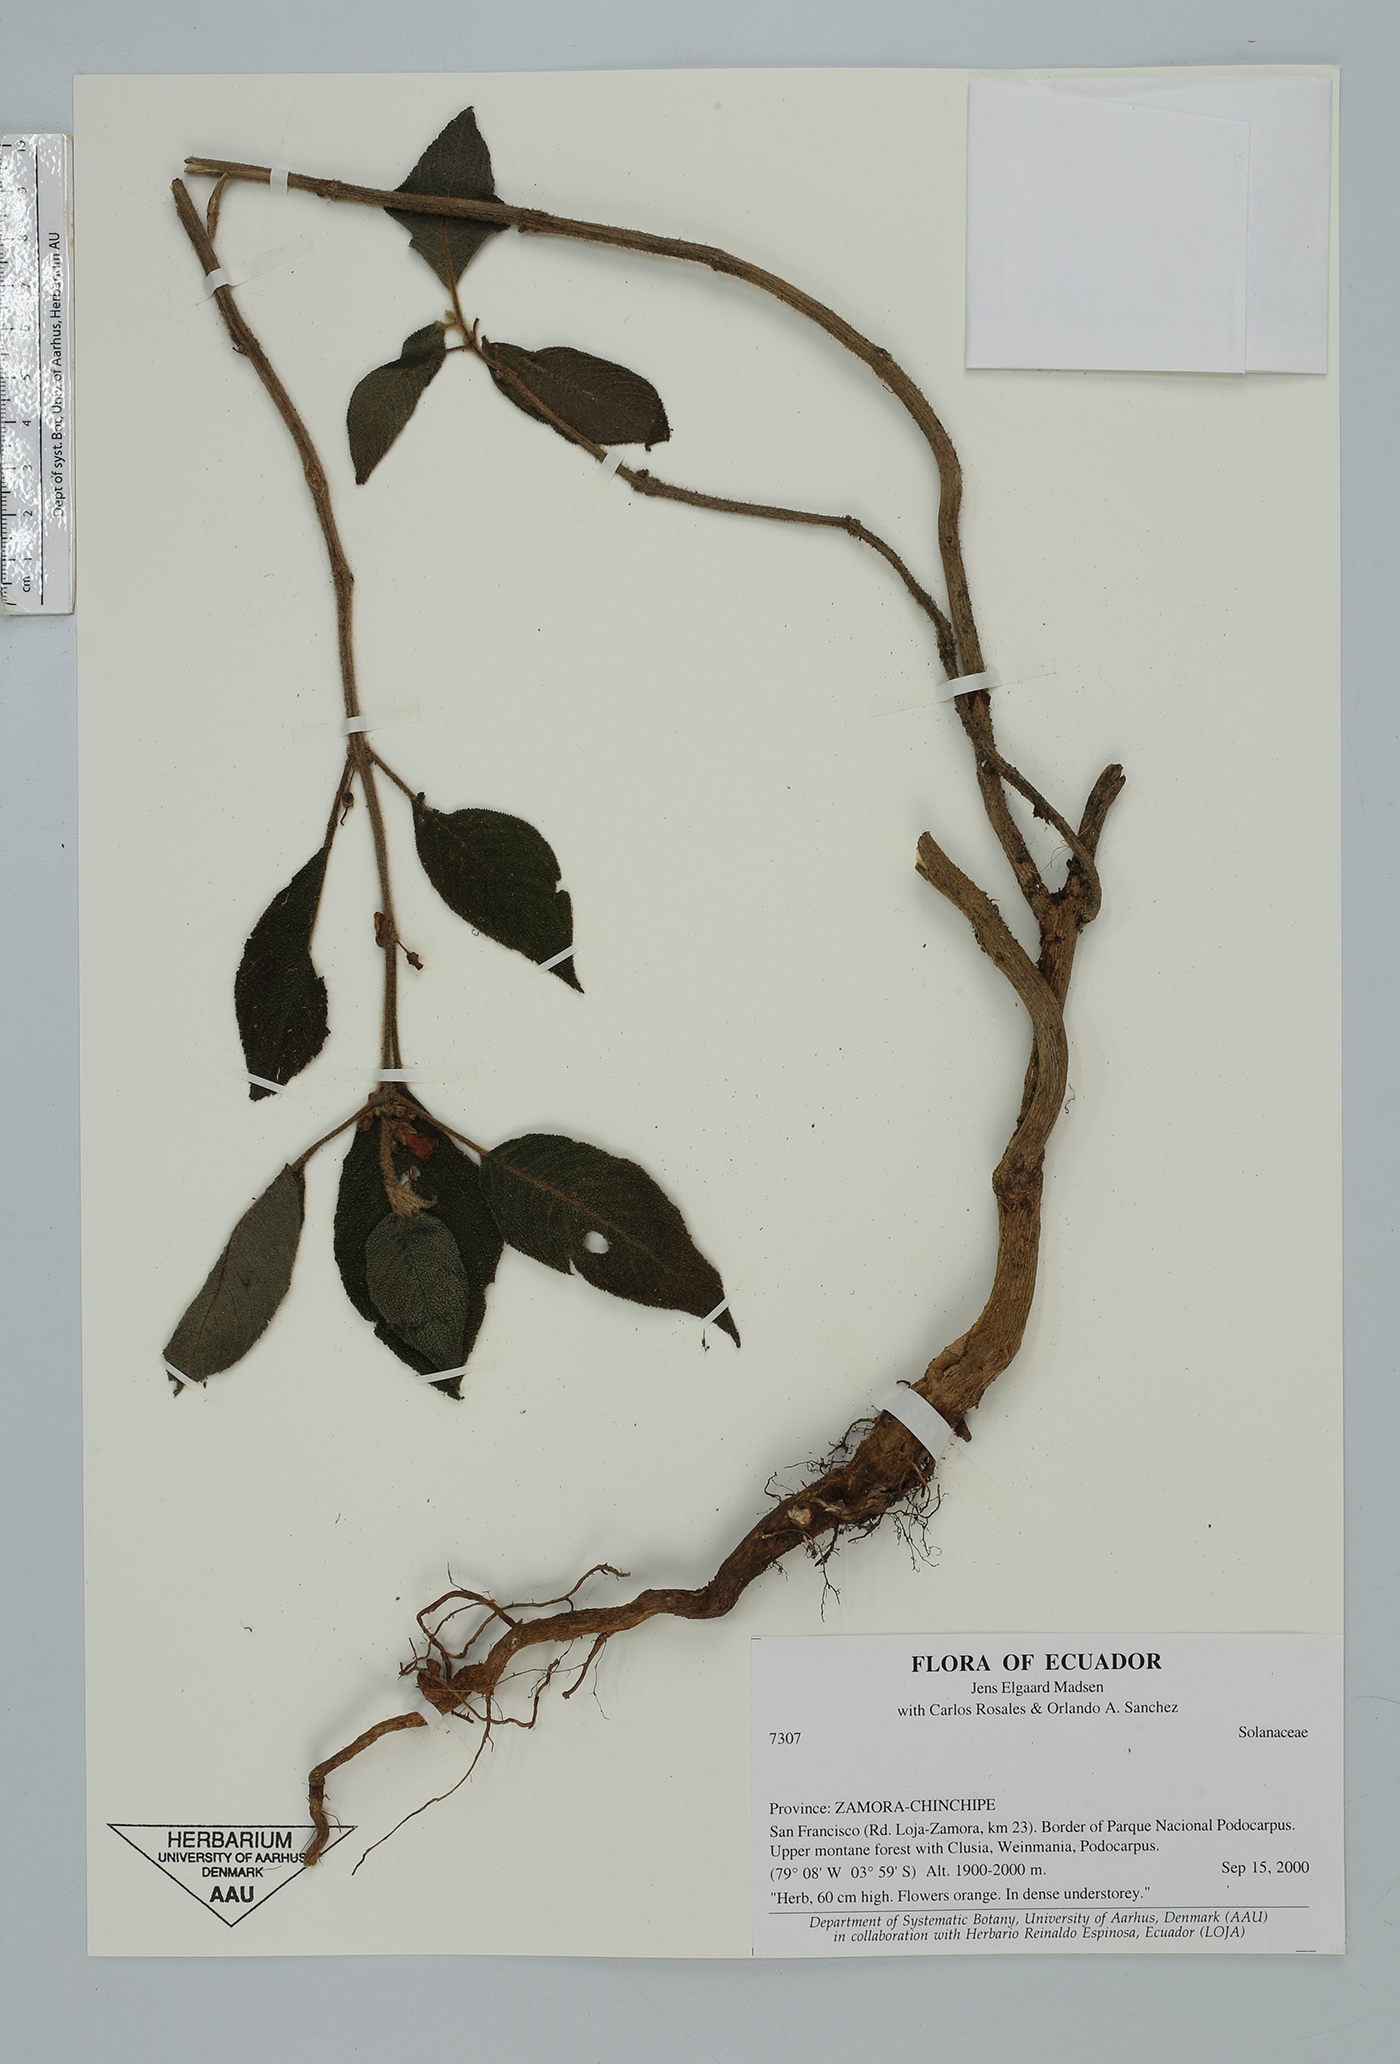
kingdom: Plantae
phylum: Tracheophyta
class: Magnoliopsida
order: Lamiales
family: Gesneriaceae
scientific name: Gesneriaceae
